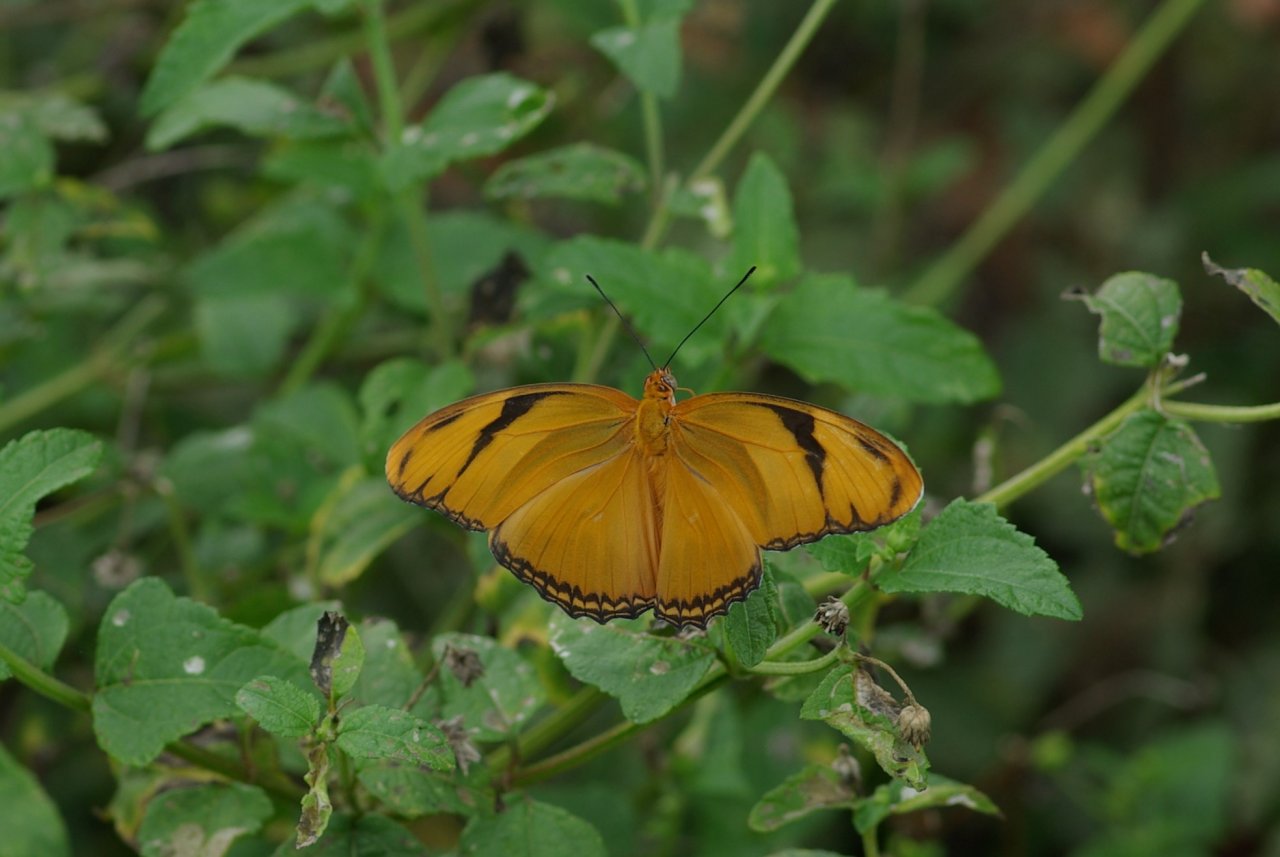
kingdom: Animalia
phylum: Arthropoda
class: Insecta
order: Lepidoptera
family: Nymphalidae
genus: Dryas
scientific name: Dryas iulia
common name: Julia
